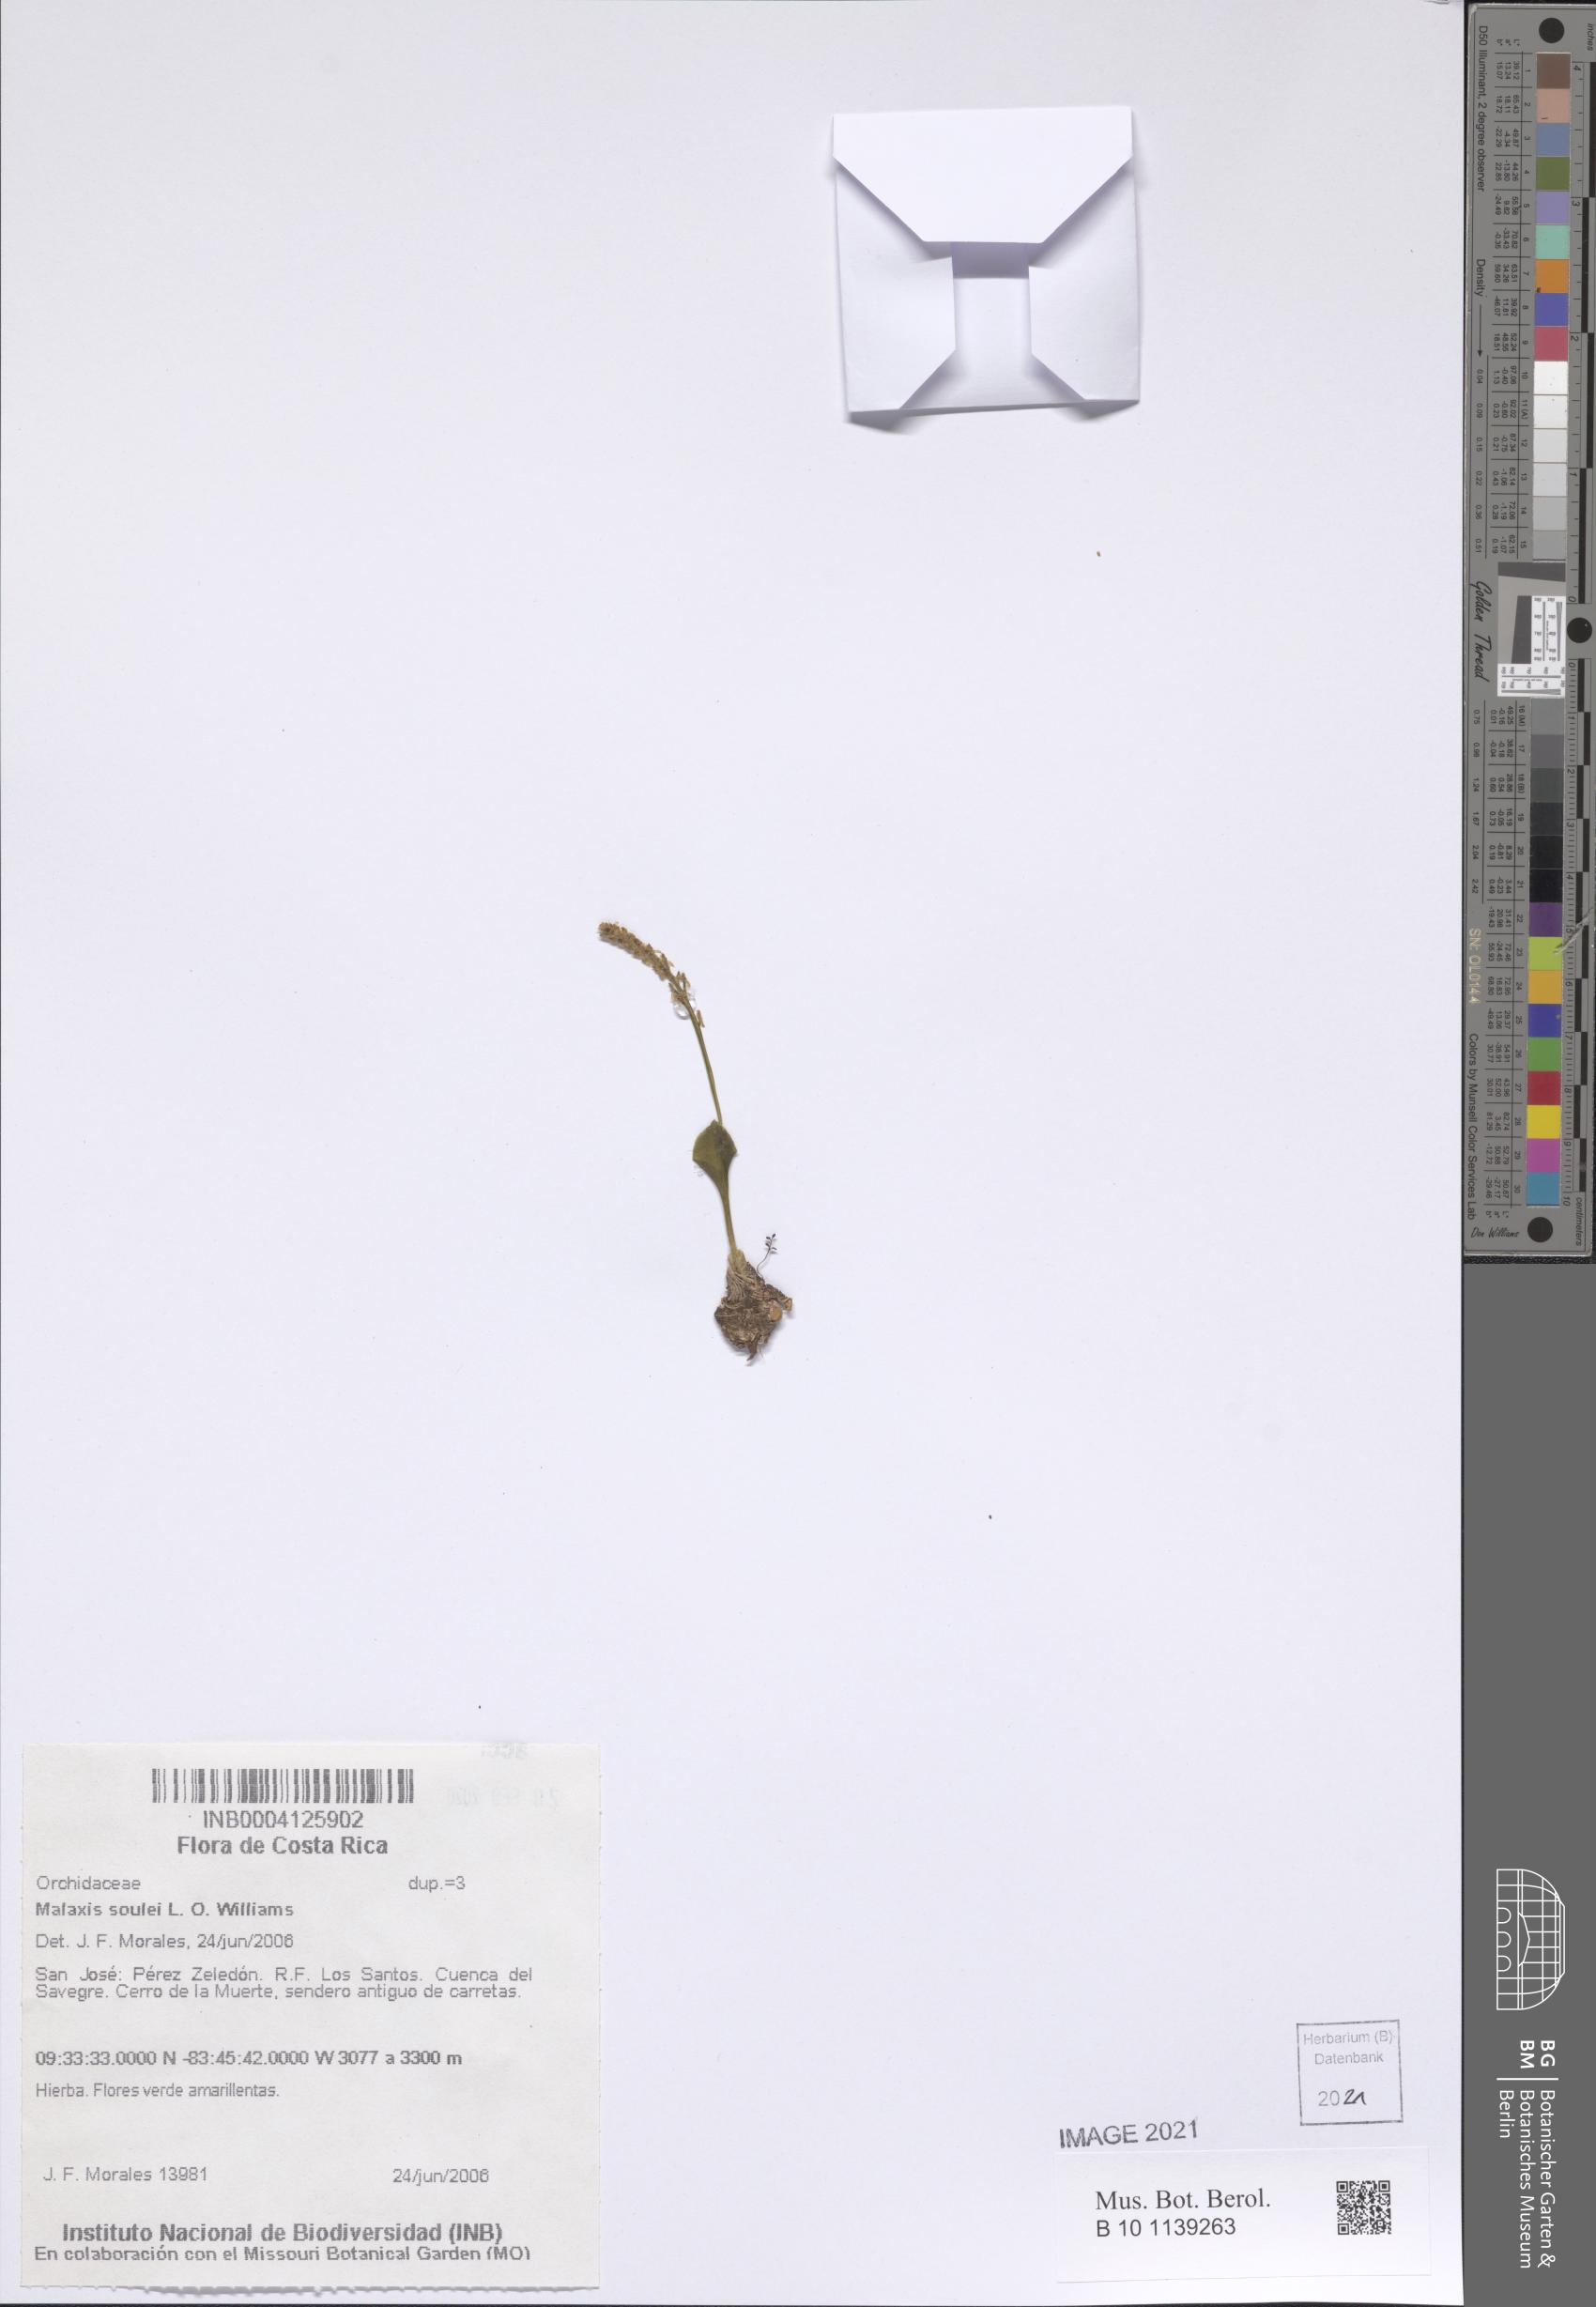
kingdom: Plantae
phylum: Tracheophyta
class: Liliopsida
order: Asparagales
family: Orchidaceae
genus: Malaxis
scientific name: Malaxis macrostachya
